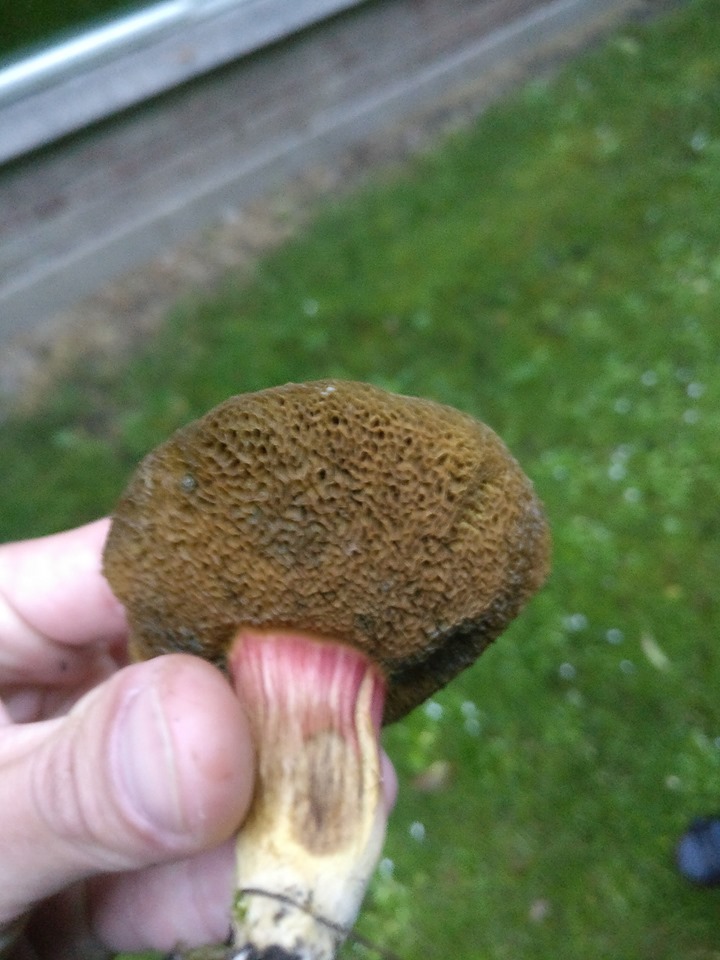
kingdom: Fungi
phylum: Basidiomycota
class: Agaricomycetes
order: Boletales
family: Boletaceae
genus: Hortiboletus
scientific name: Hortiboletus bubalinus
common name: aurora-rørhat
